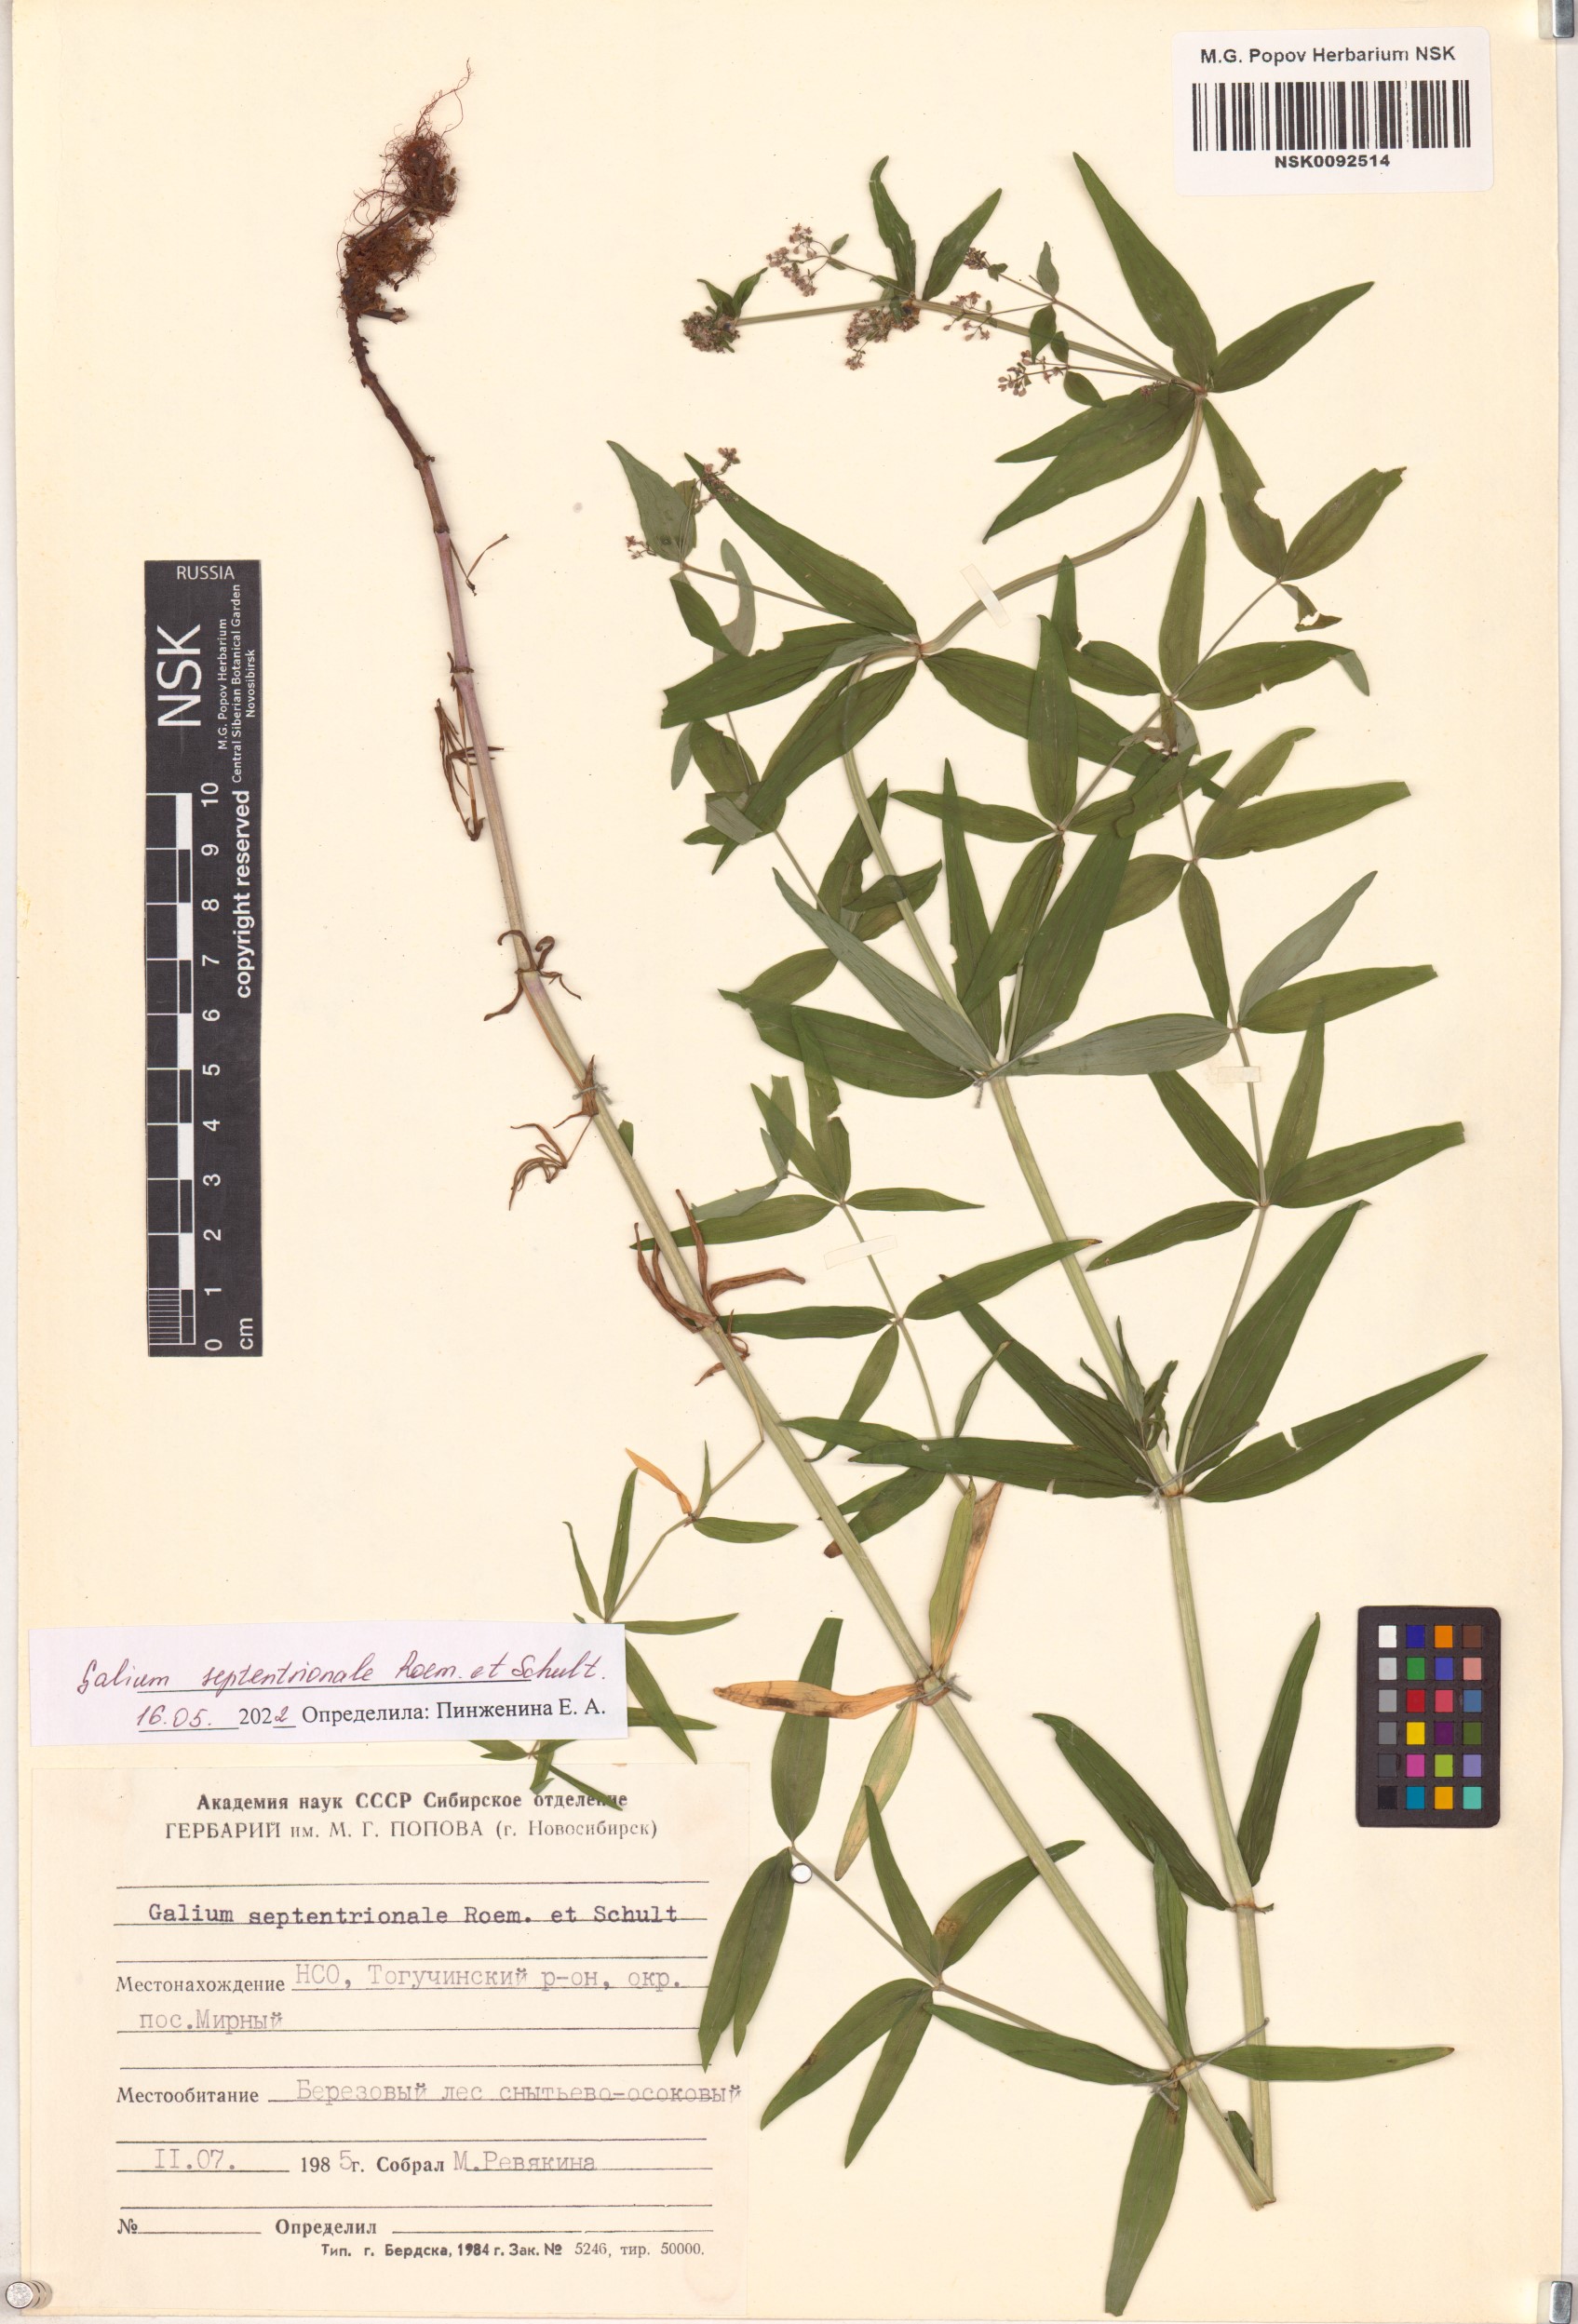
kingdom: Plantae
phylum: Tracheophyta
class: Magnoliopsida
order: Gentianales
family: Rubiaceae
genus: Galium
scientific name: Galium boreale
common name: Northern bedstraw
